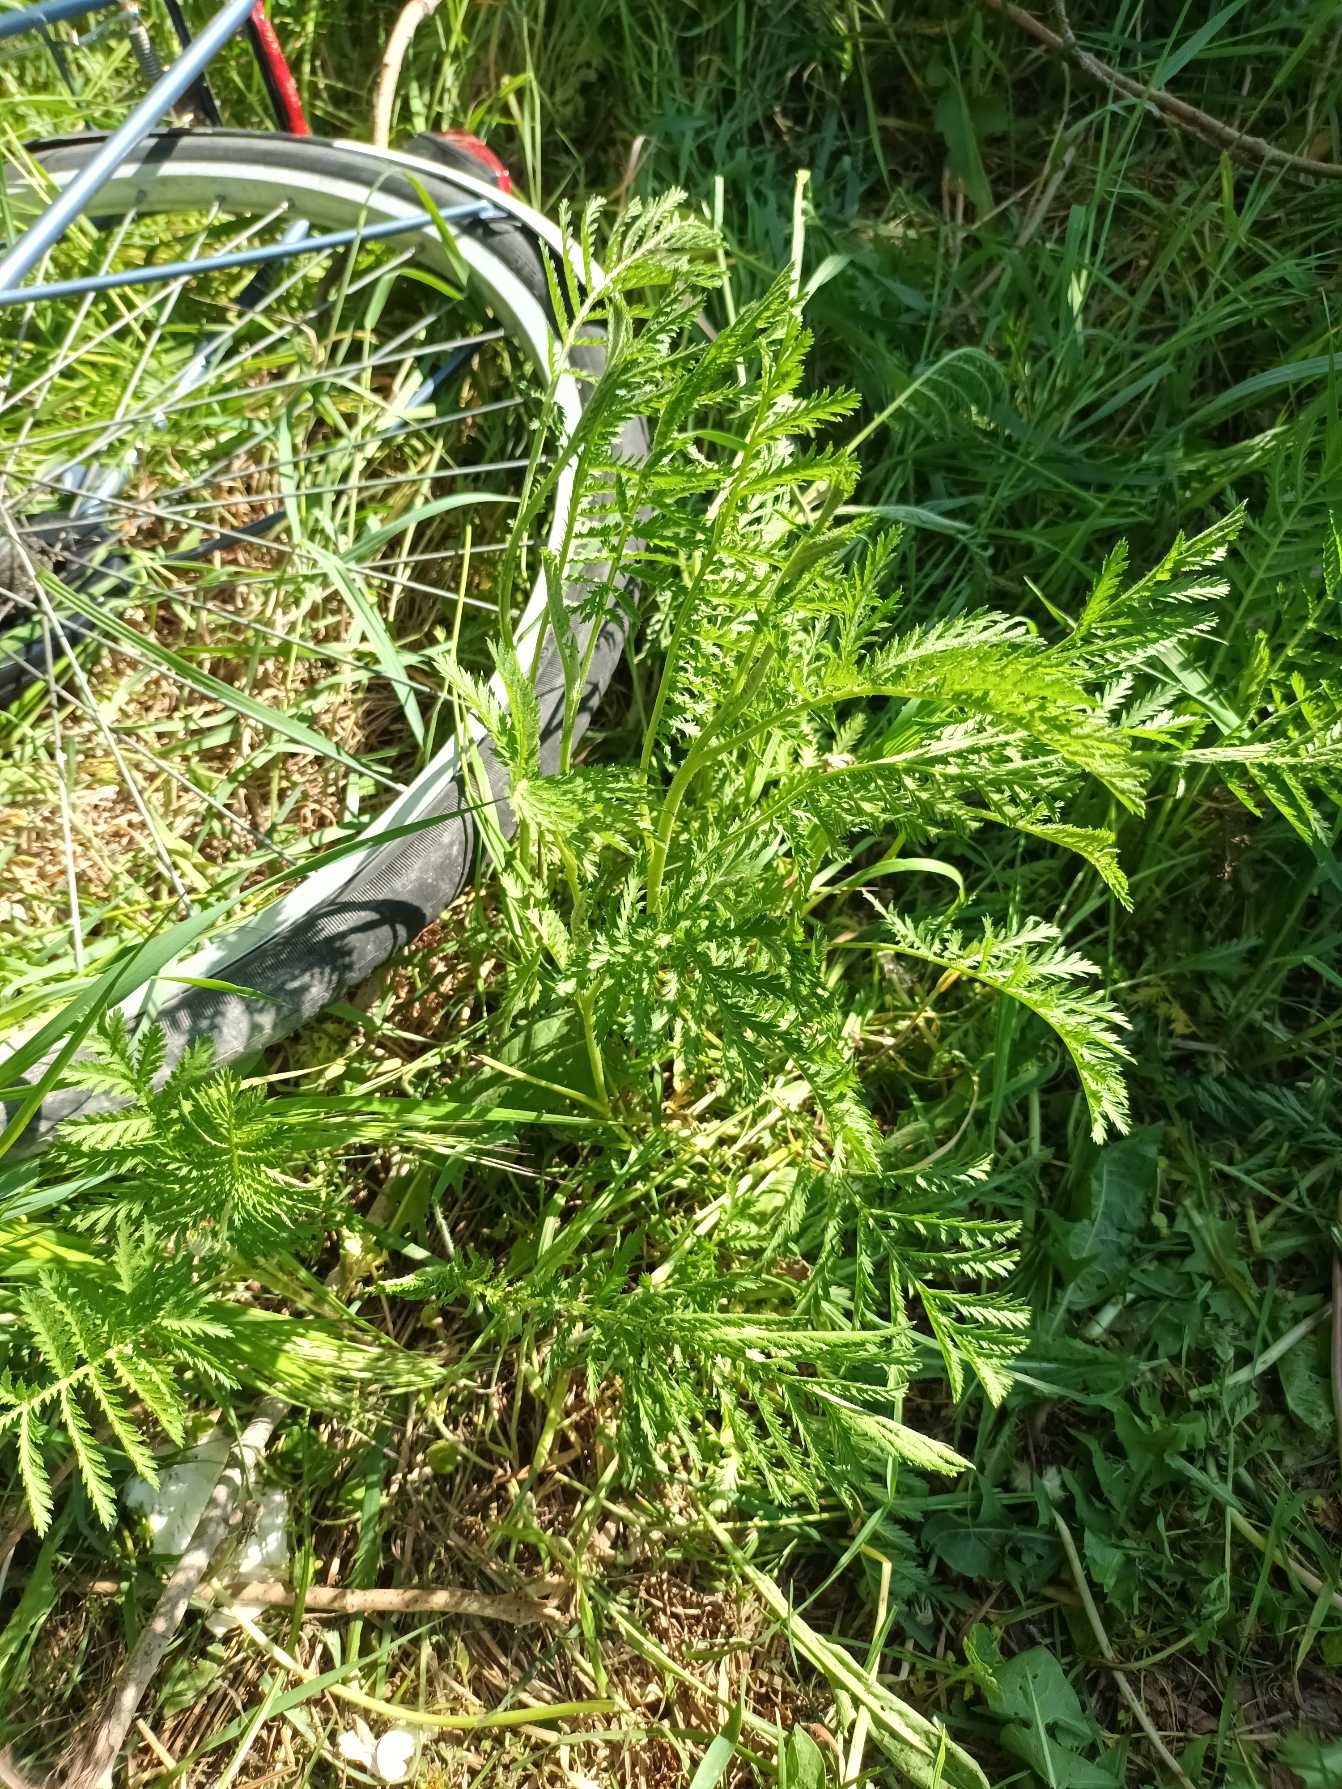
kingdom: Plantae
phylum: Tracheophyta
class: Magnoliopsida
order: Asterales
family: Asteraceae
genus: Tanacetum
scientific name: Tanacetum vulgare
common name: Rejnfan
